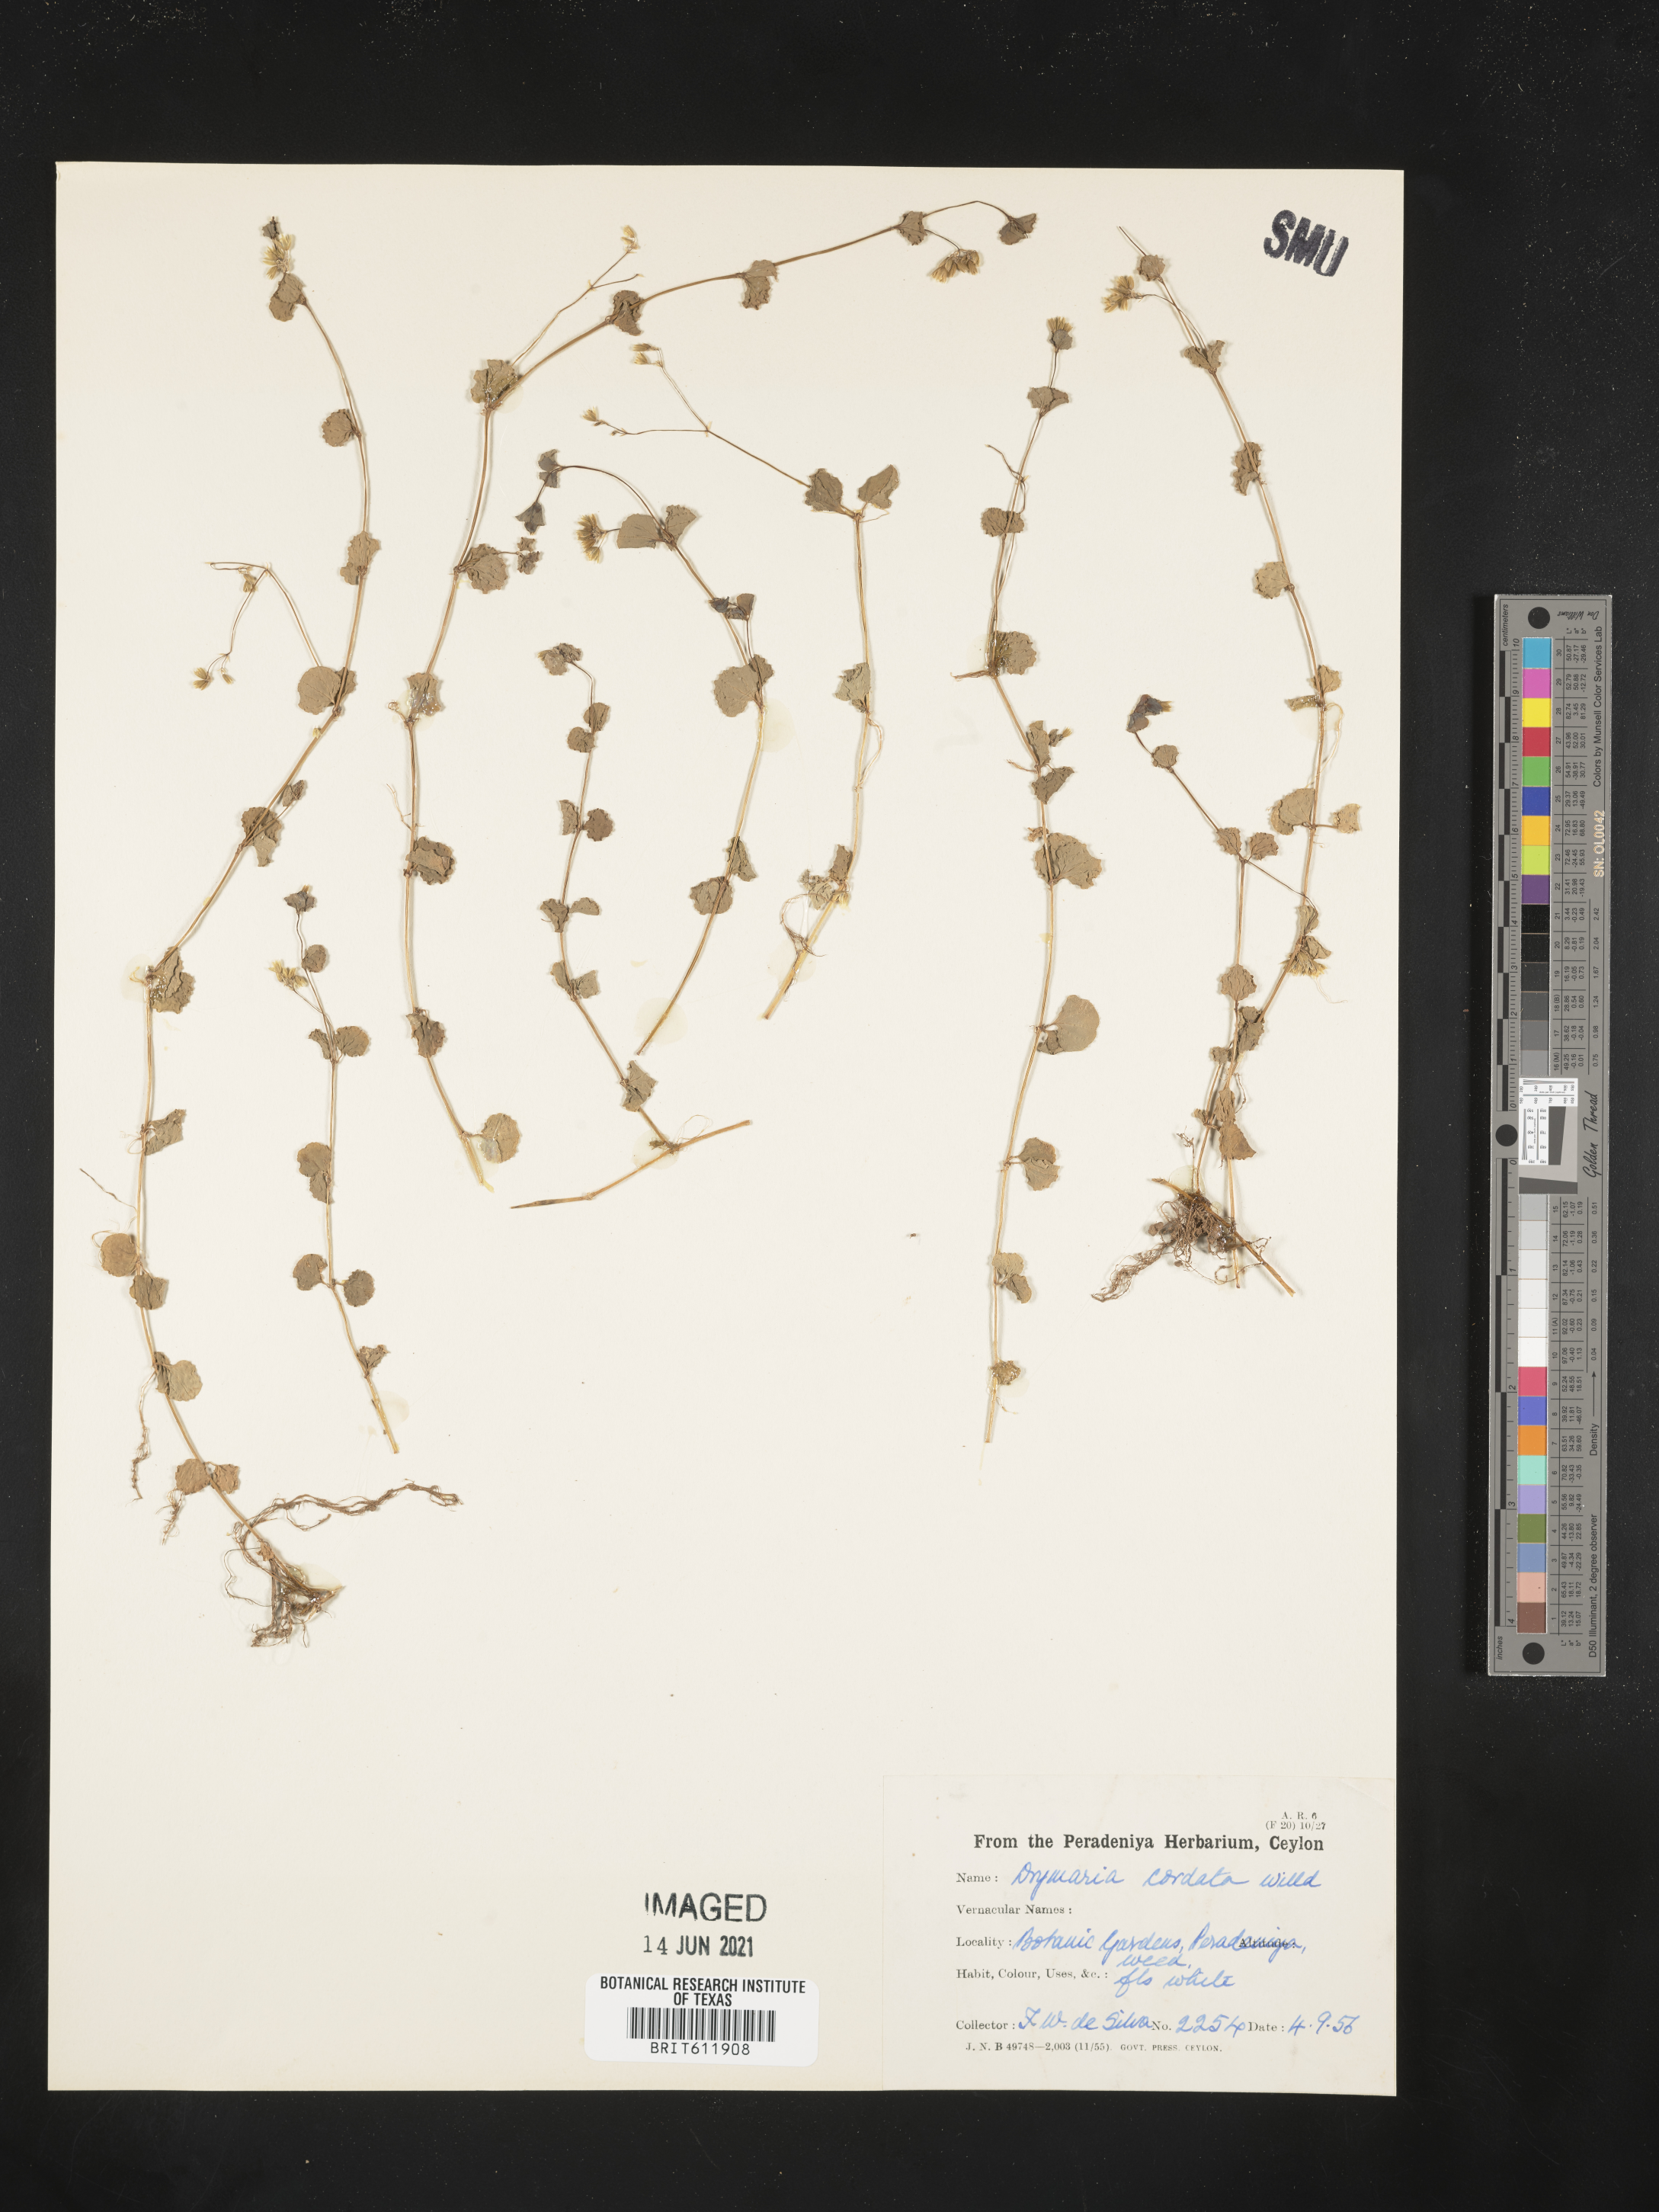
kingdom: Plantae
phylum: Tracheophyta
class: Magnoliopsida
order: Caryophyllales
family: Caryophyllaceae
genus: Drymaria
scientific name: Drymaria cordata
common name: Whitesnow
